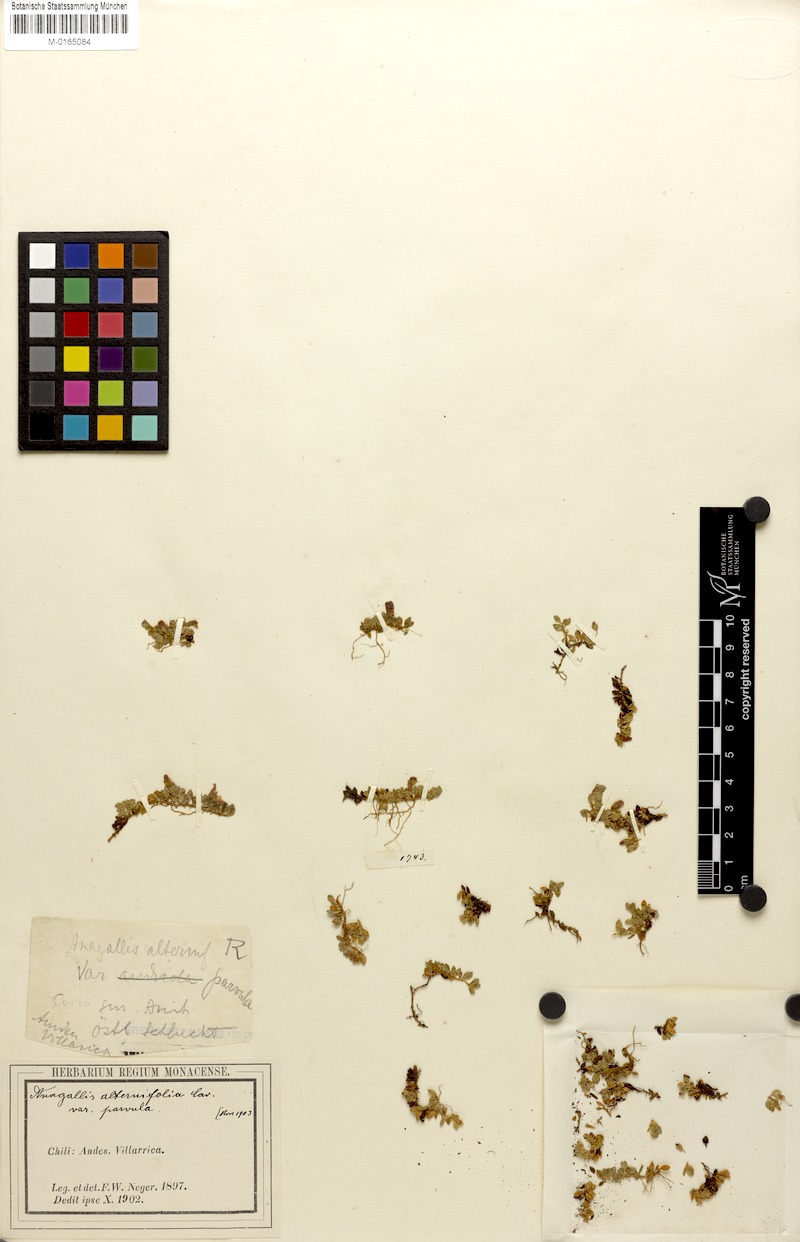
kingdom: Plantae
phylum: Tracheophyta
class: Magnoliopsida
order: Ericales
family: Primulaceae
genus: Lysimachia
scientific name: Lysimachia lanceola
